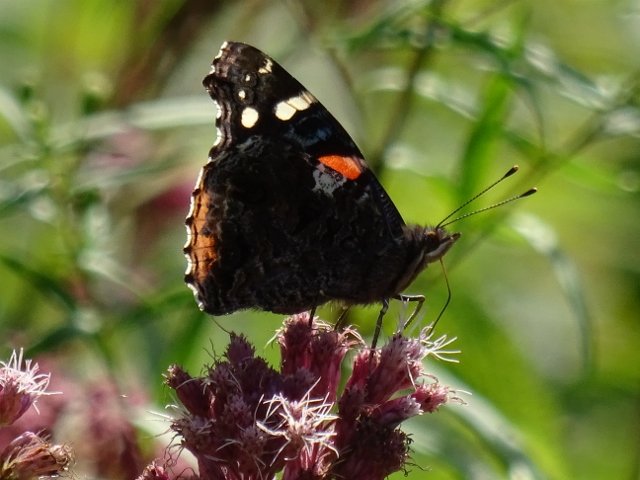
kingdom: Animalia
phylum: Arthropoda
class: Insecta
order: Lepidoptera
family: Nymphalidae
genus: Vanessa
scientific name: Vanessa atalanta
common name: Red Admiral
